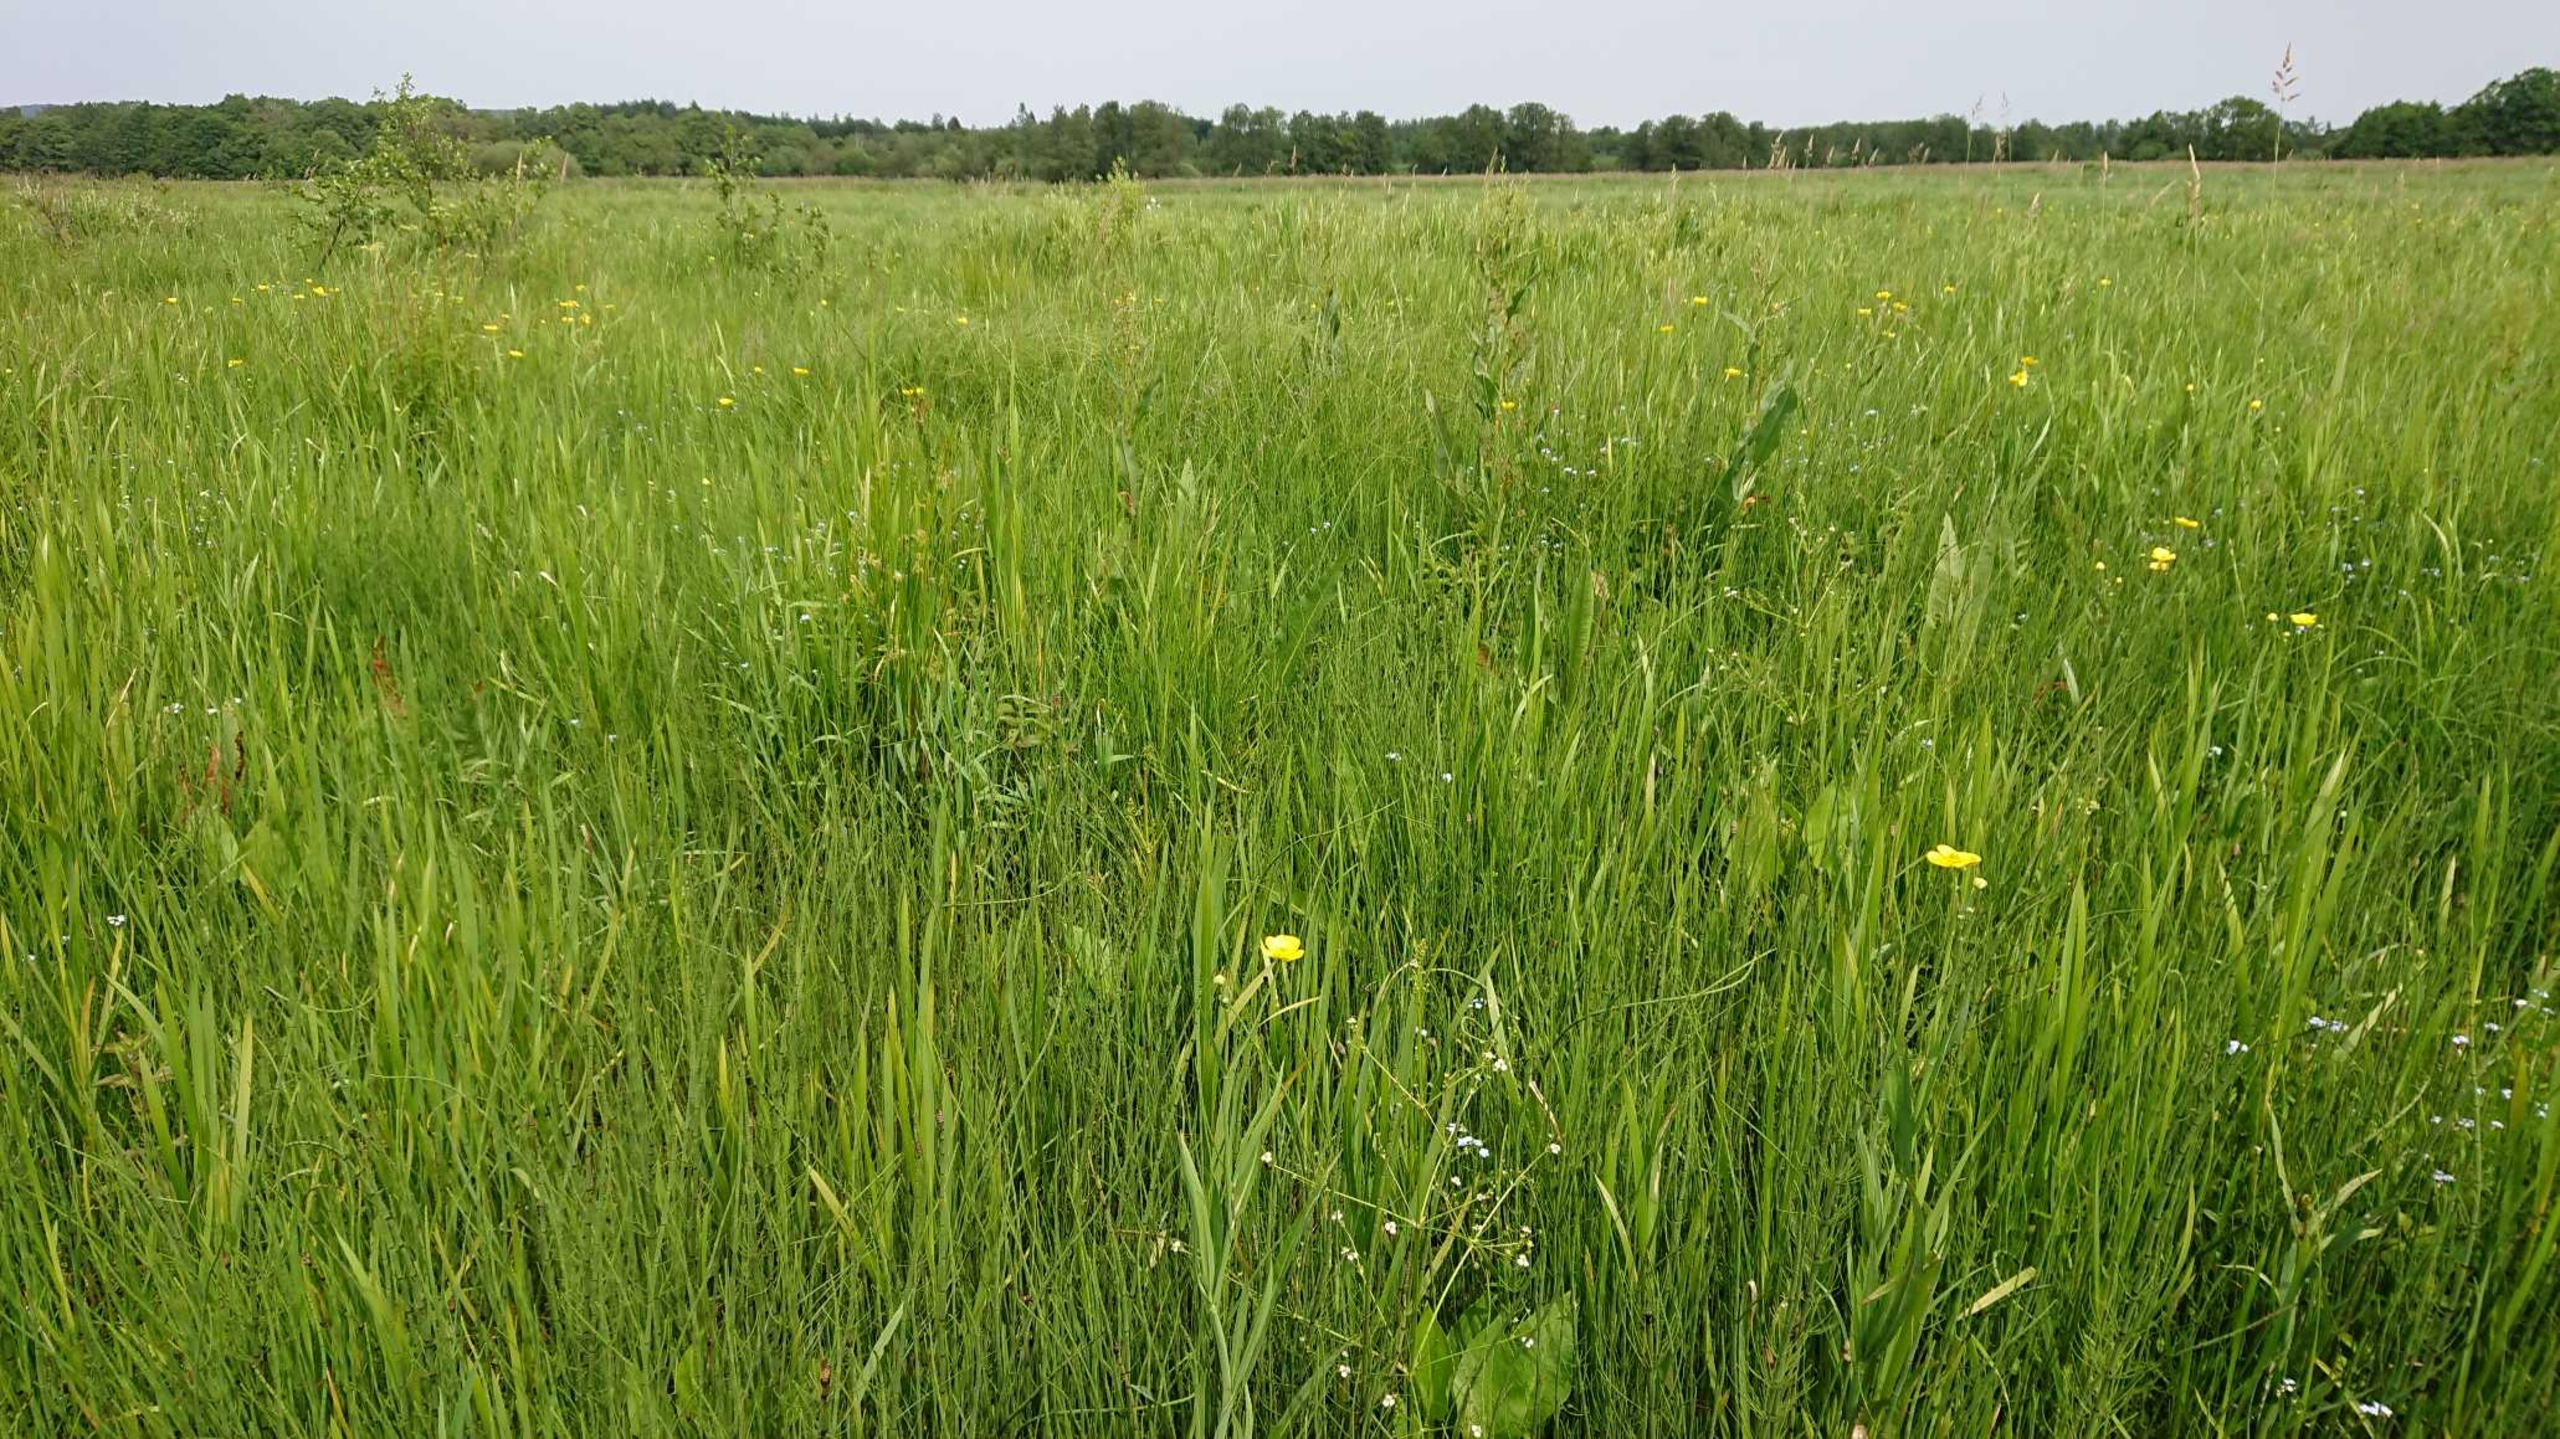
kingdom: Plantae
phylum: Tracheophyta
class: Magnoliopsida
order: Ranunculales
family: Ranunculaceae
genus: Ranunculus
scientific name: Ranunculus lingua
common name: Langbladet ranunkel
